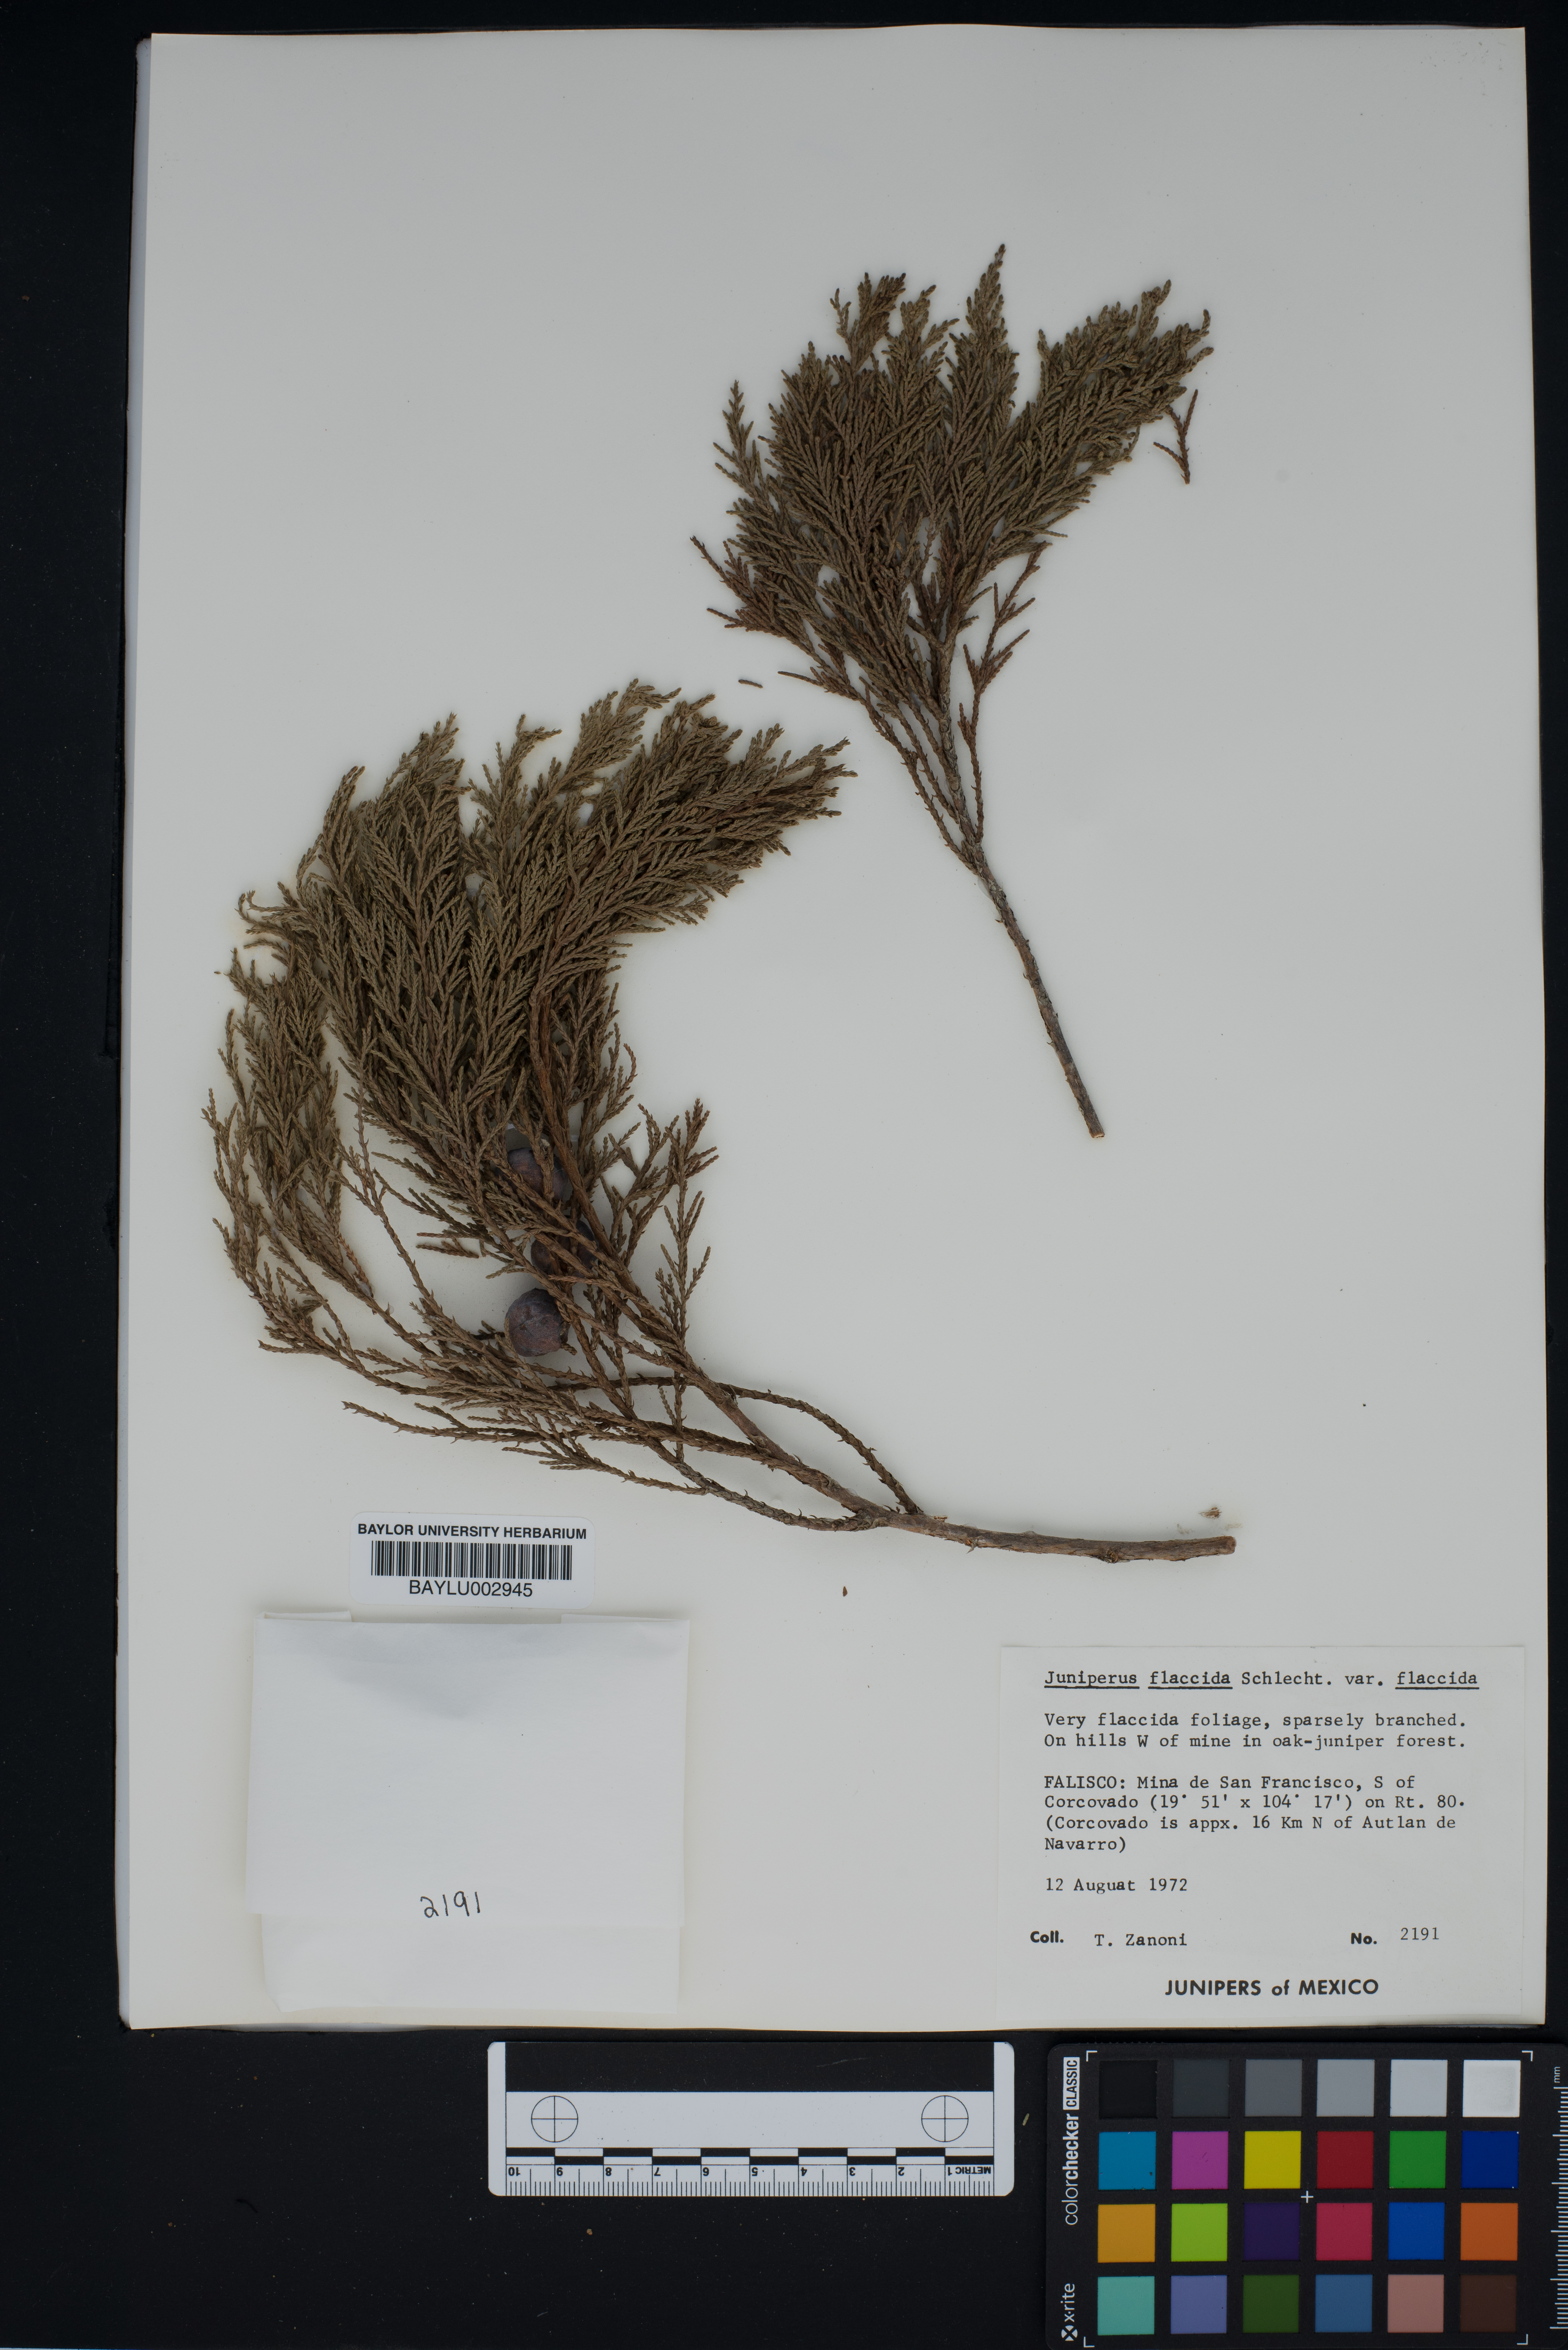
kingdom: Plantae
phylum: Tracheophyta
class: Pinopsida
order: Pinales
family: Cupressaceae
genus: Juniperus
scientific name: Juniperus flaccida
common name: Drooping juniper
